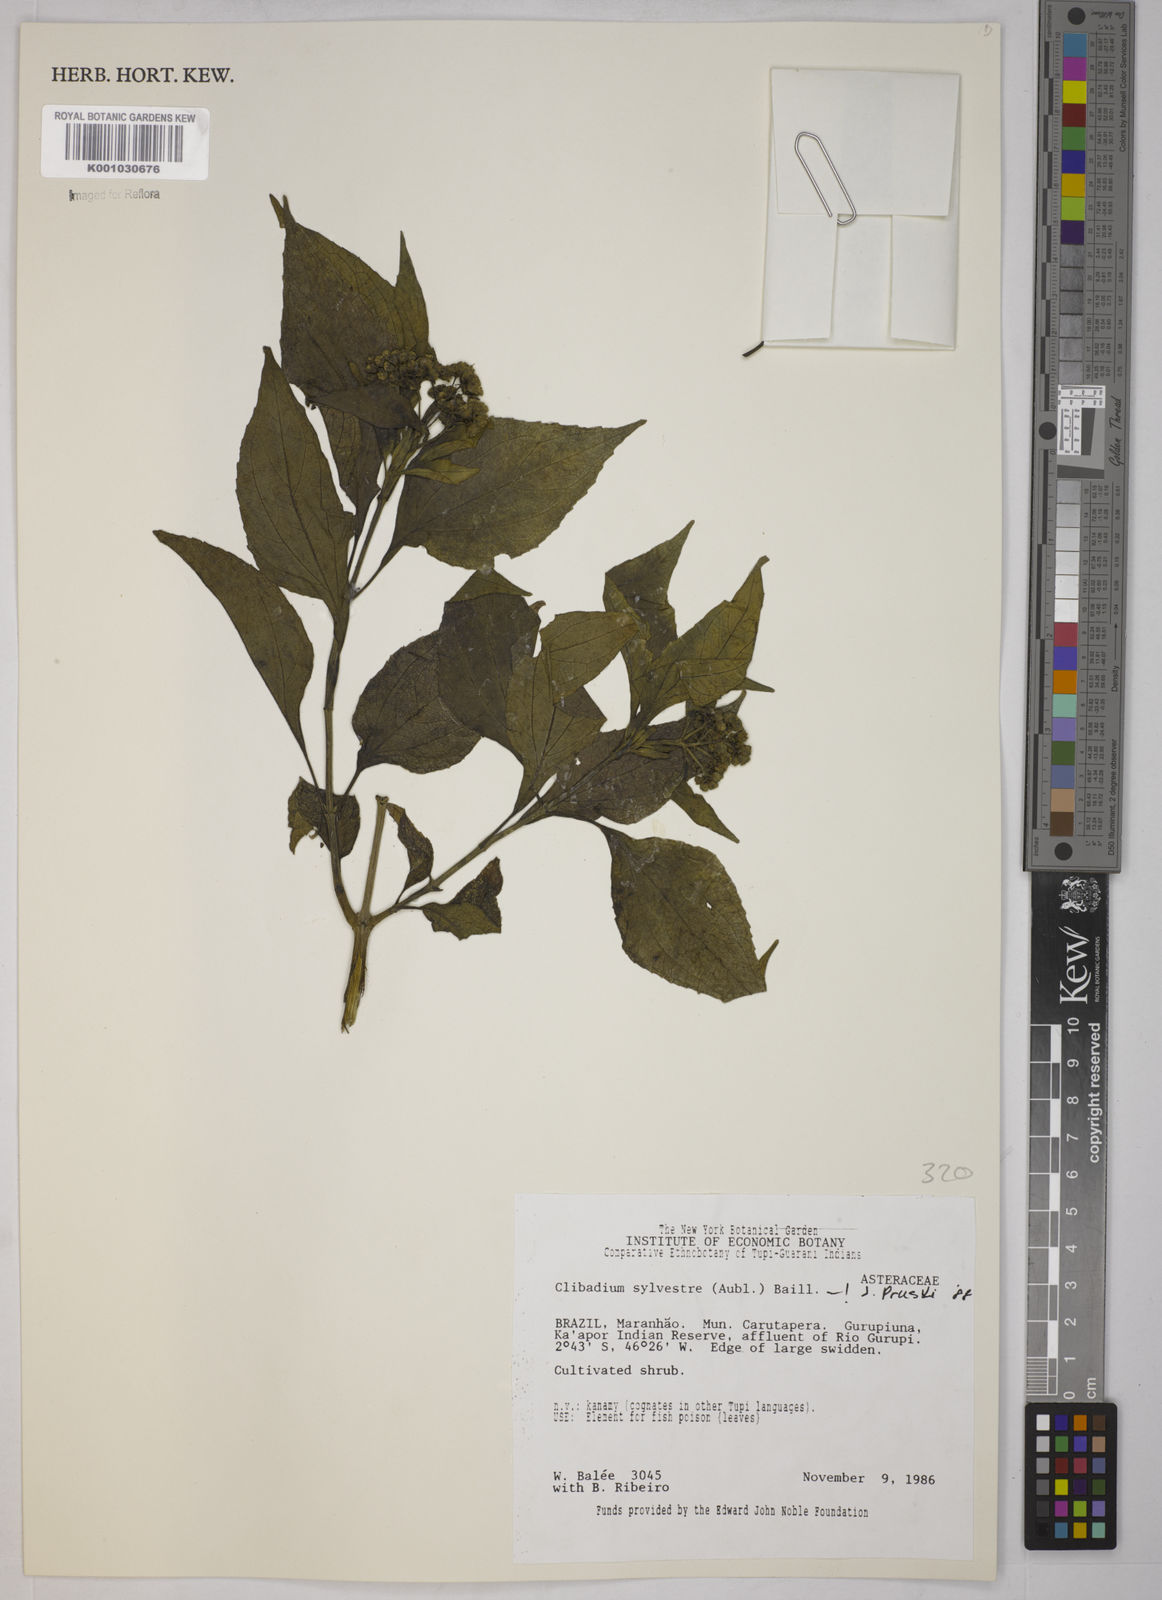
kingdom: Plantae
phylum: Tracheophyta
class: Magnoliopsida
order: Asterales
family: Asteraceae
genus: Clibadium
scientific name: Clibadium sylvestre
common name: Barbasco
